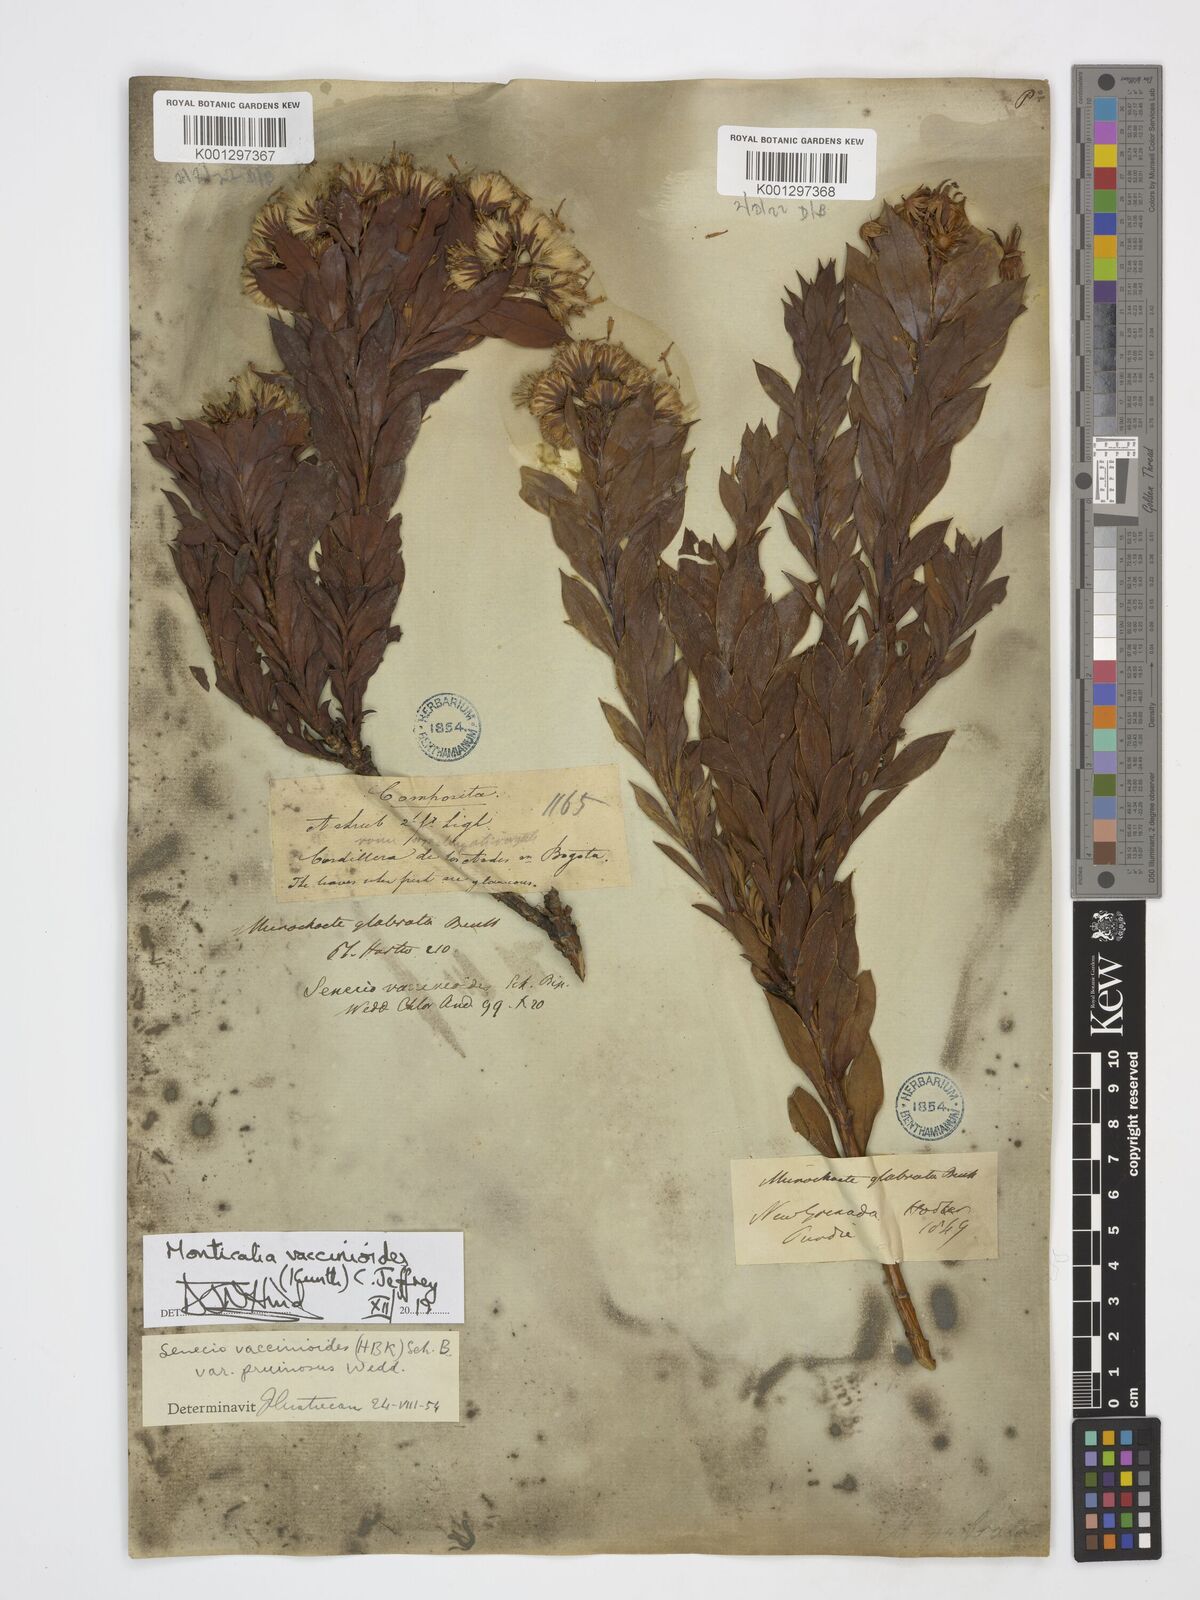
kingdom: Plantae
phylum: Tracheophyta
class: Magnoliopsida
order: Asterales
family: Asteraceae
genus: Monticalia
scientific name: Monticalia vaccinioides
